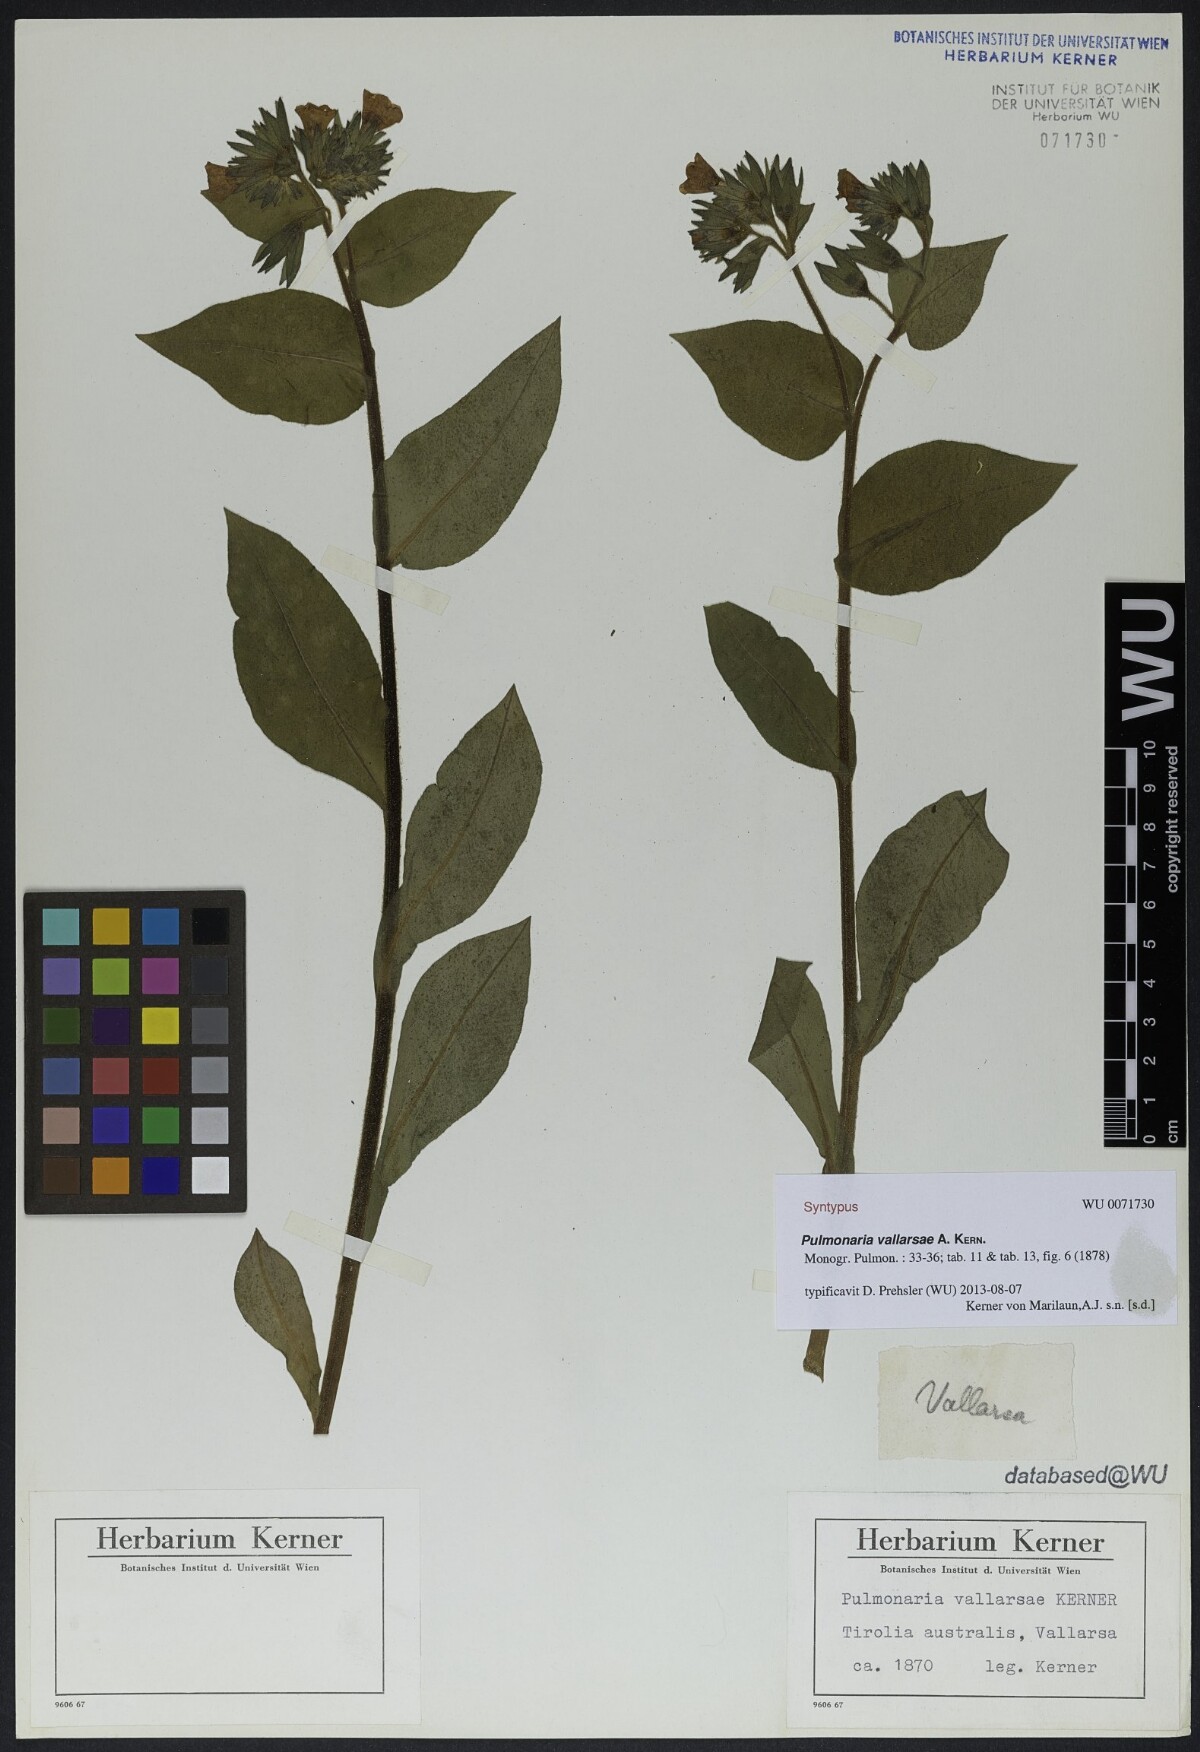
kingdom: Plantae
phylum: Tracheophyta
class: Magnoliopsida
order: Boraginales
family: Boraginaceae
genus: Pulmonaria
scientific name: Pulmonaria hirta
